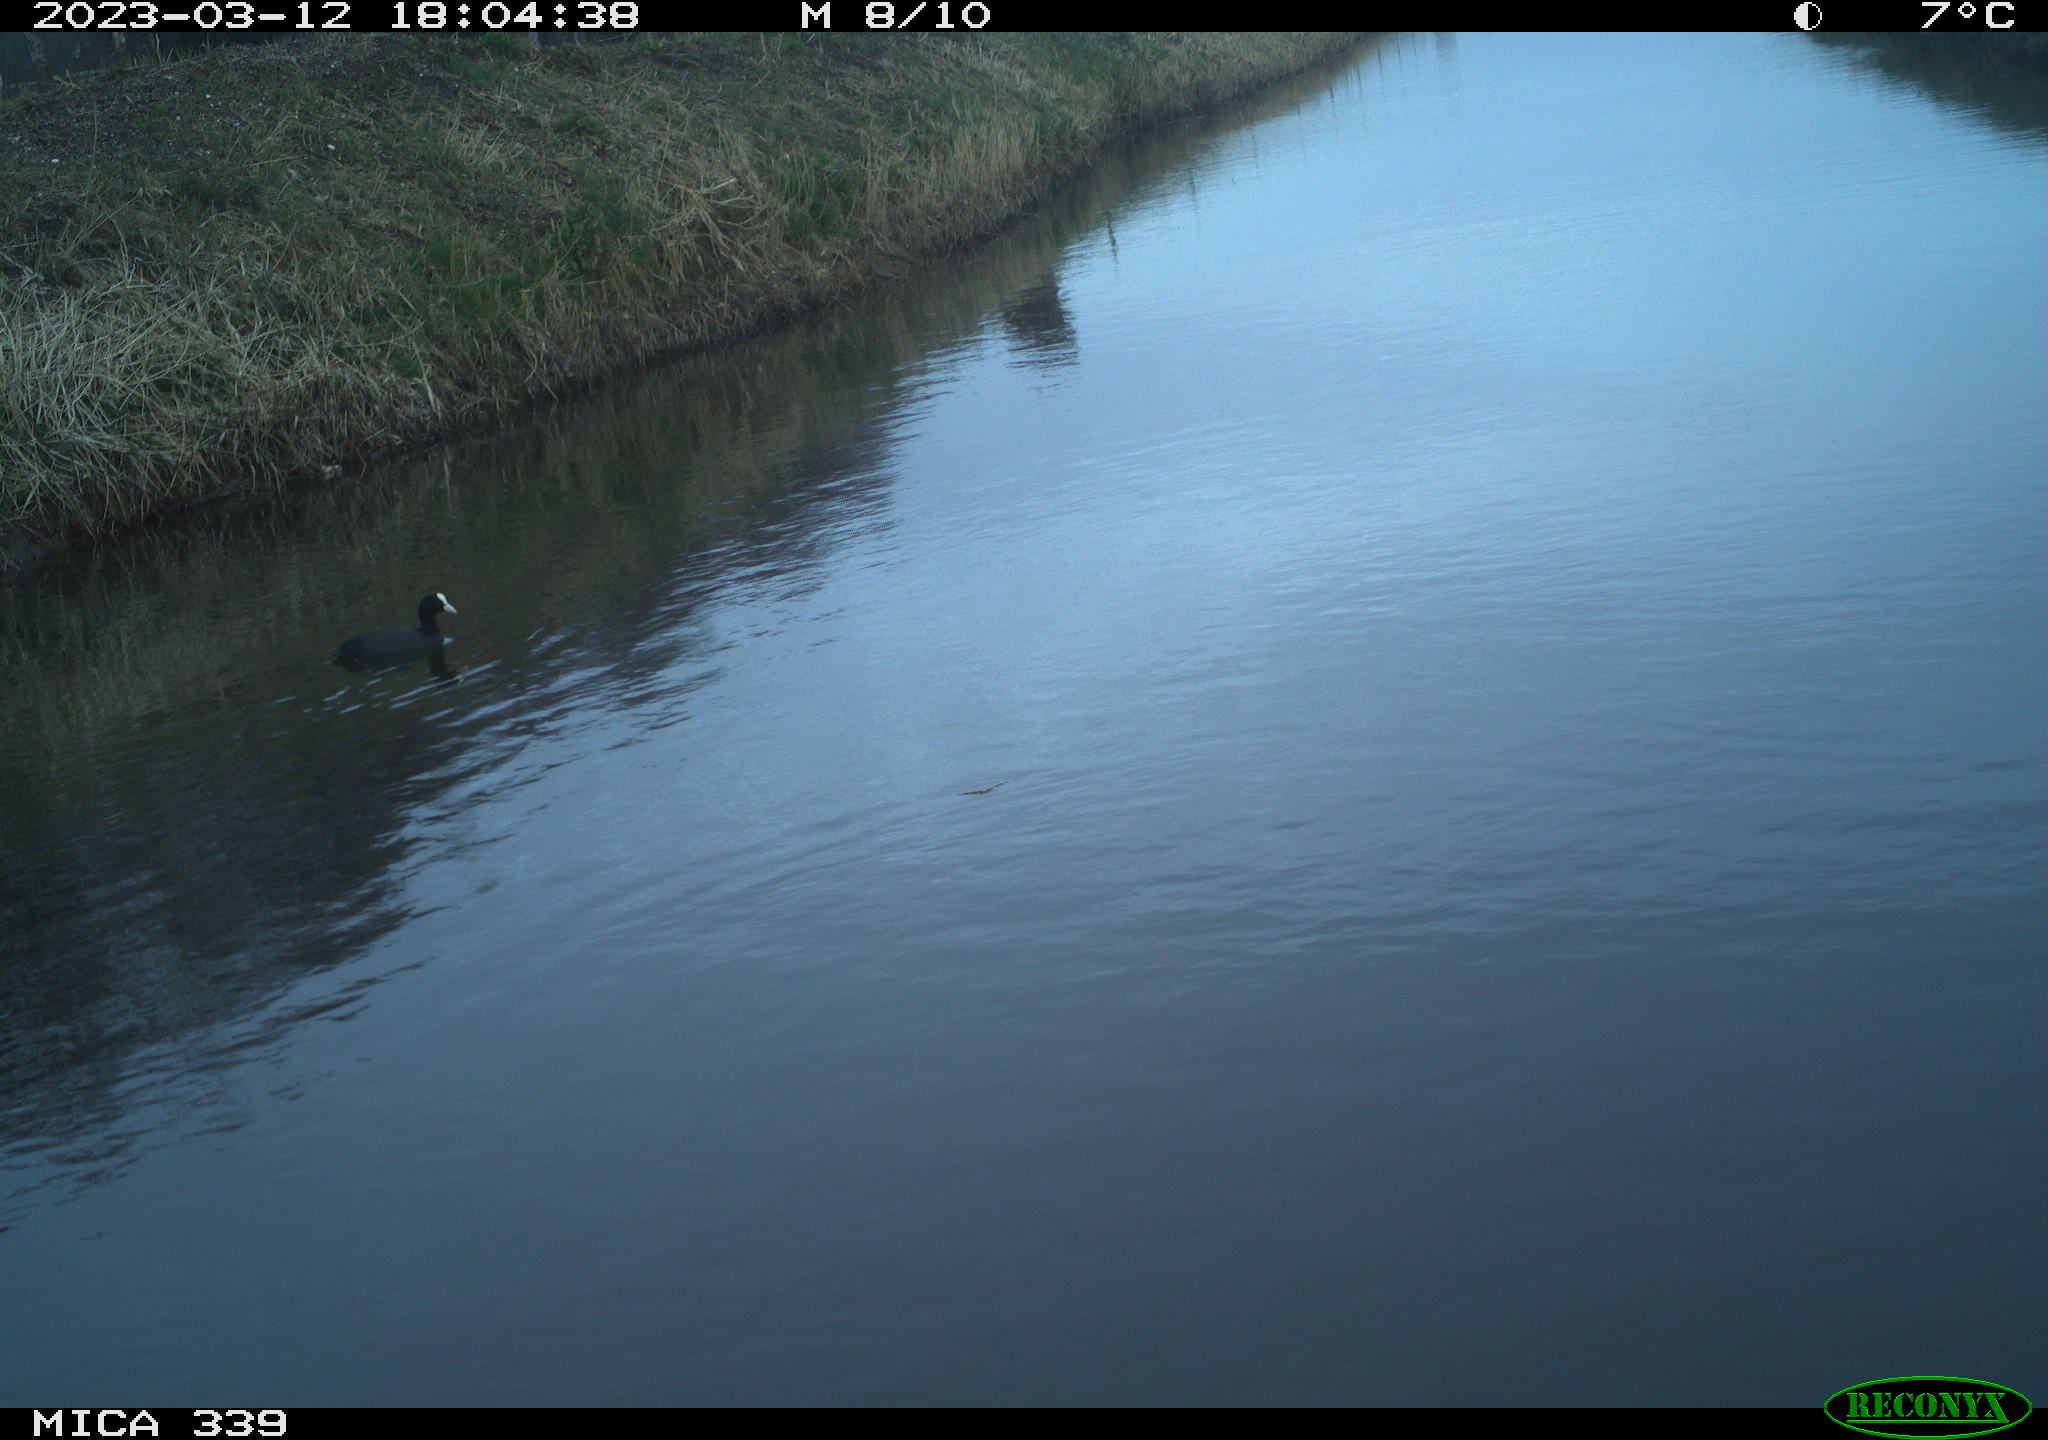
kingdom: Animalia
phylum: Chordata
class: Aves
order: Pelecaniformes
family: Ardeidae
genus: Ardea
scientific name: Ardea cinerea
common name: Grey heron
